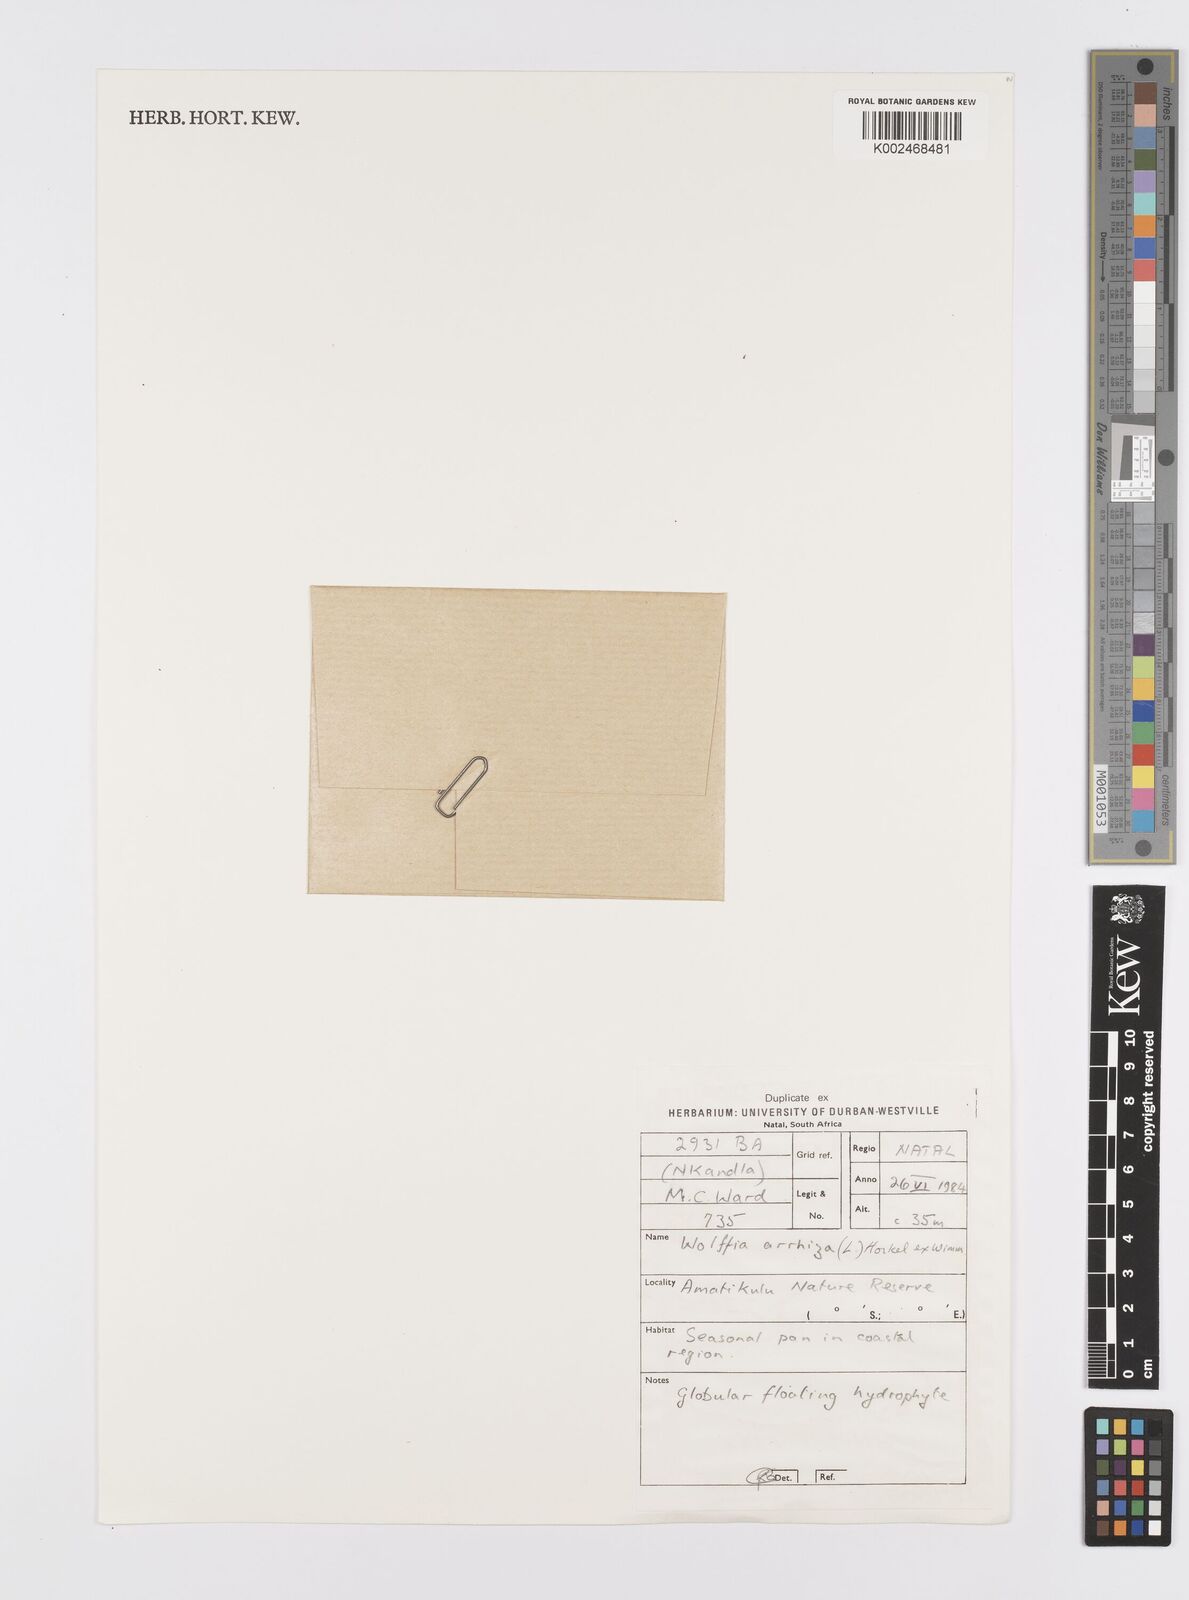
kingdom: Plantae
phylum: Tracheophyta
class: Liliopsida
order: Alismatales
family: Araceae
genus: Wolffia
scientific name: Wolffia arrhiza
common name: Rootless duckweed
